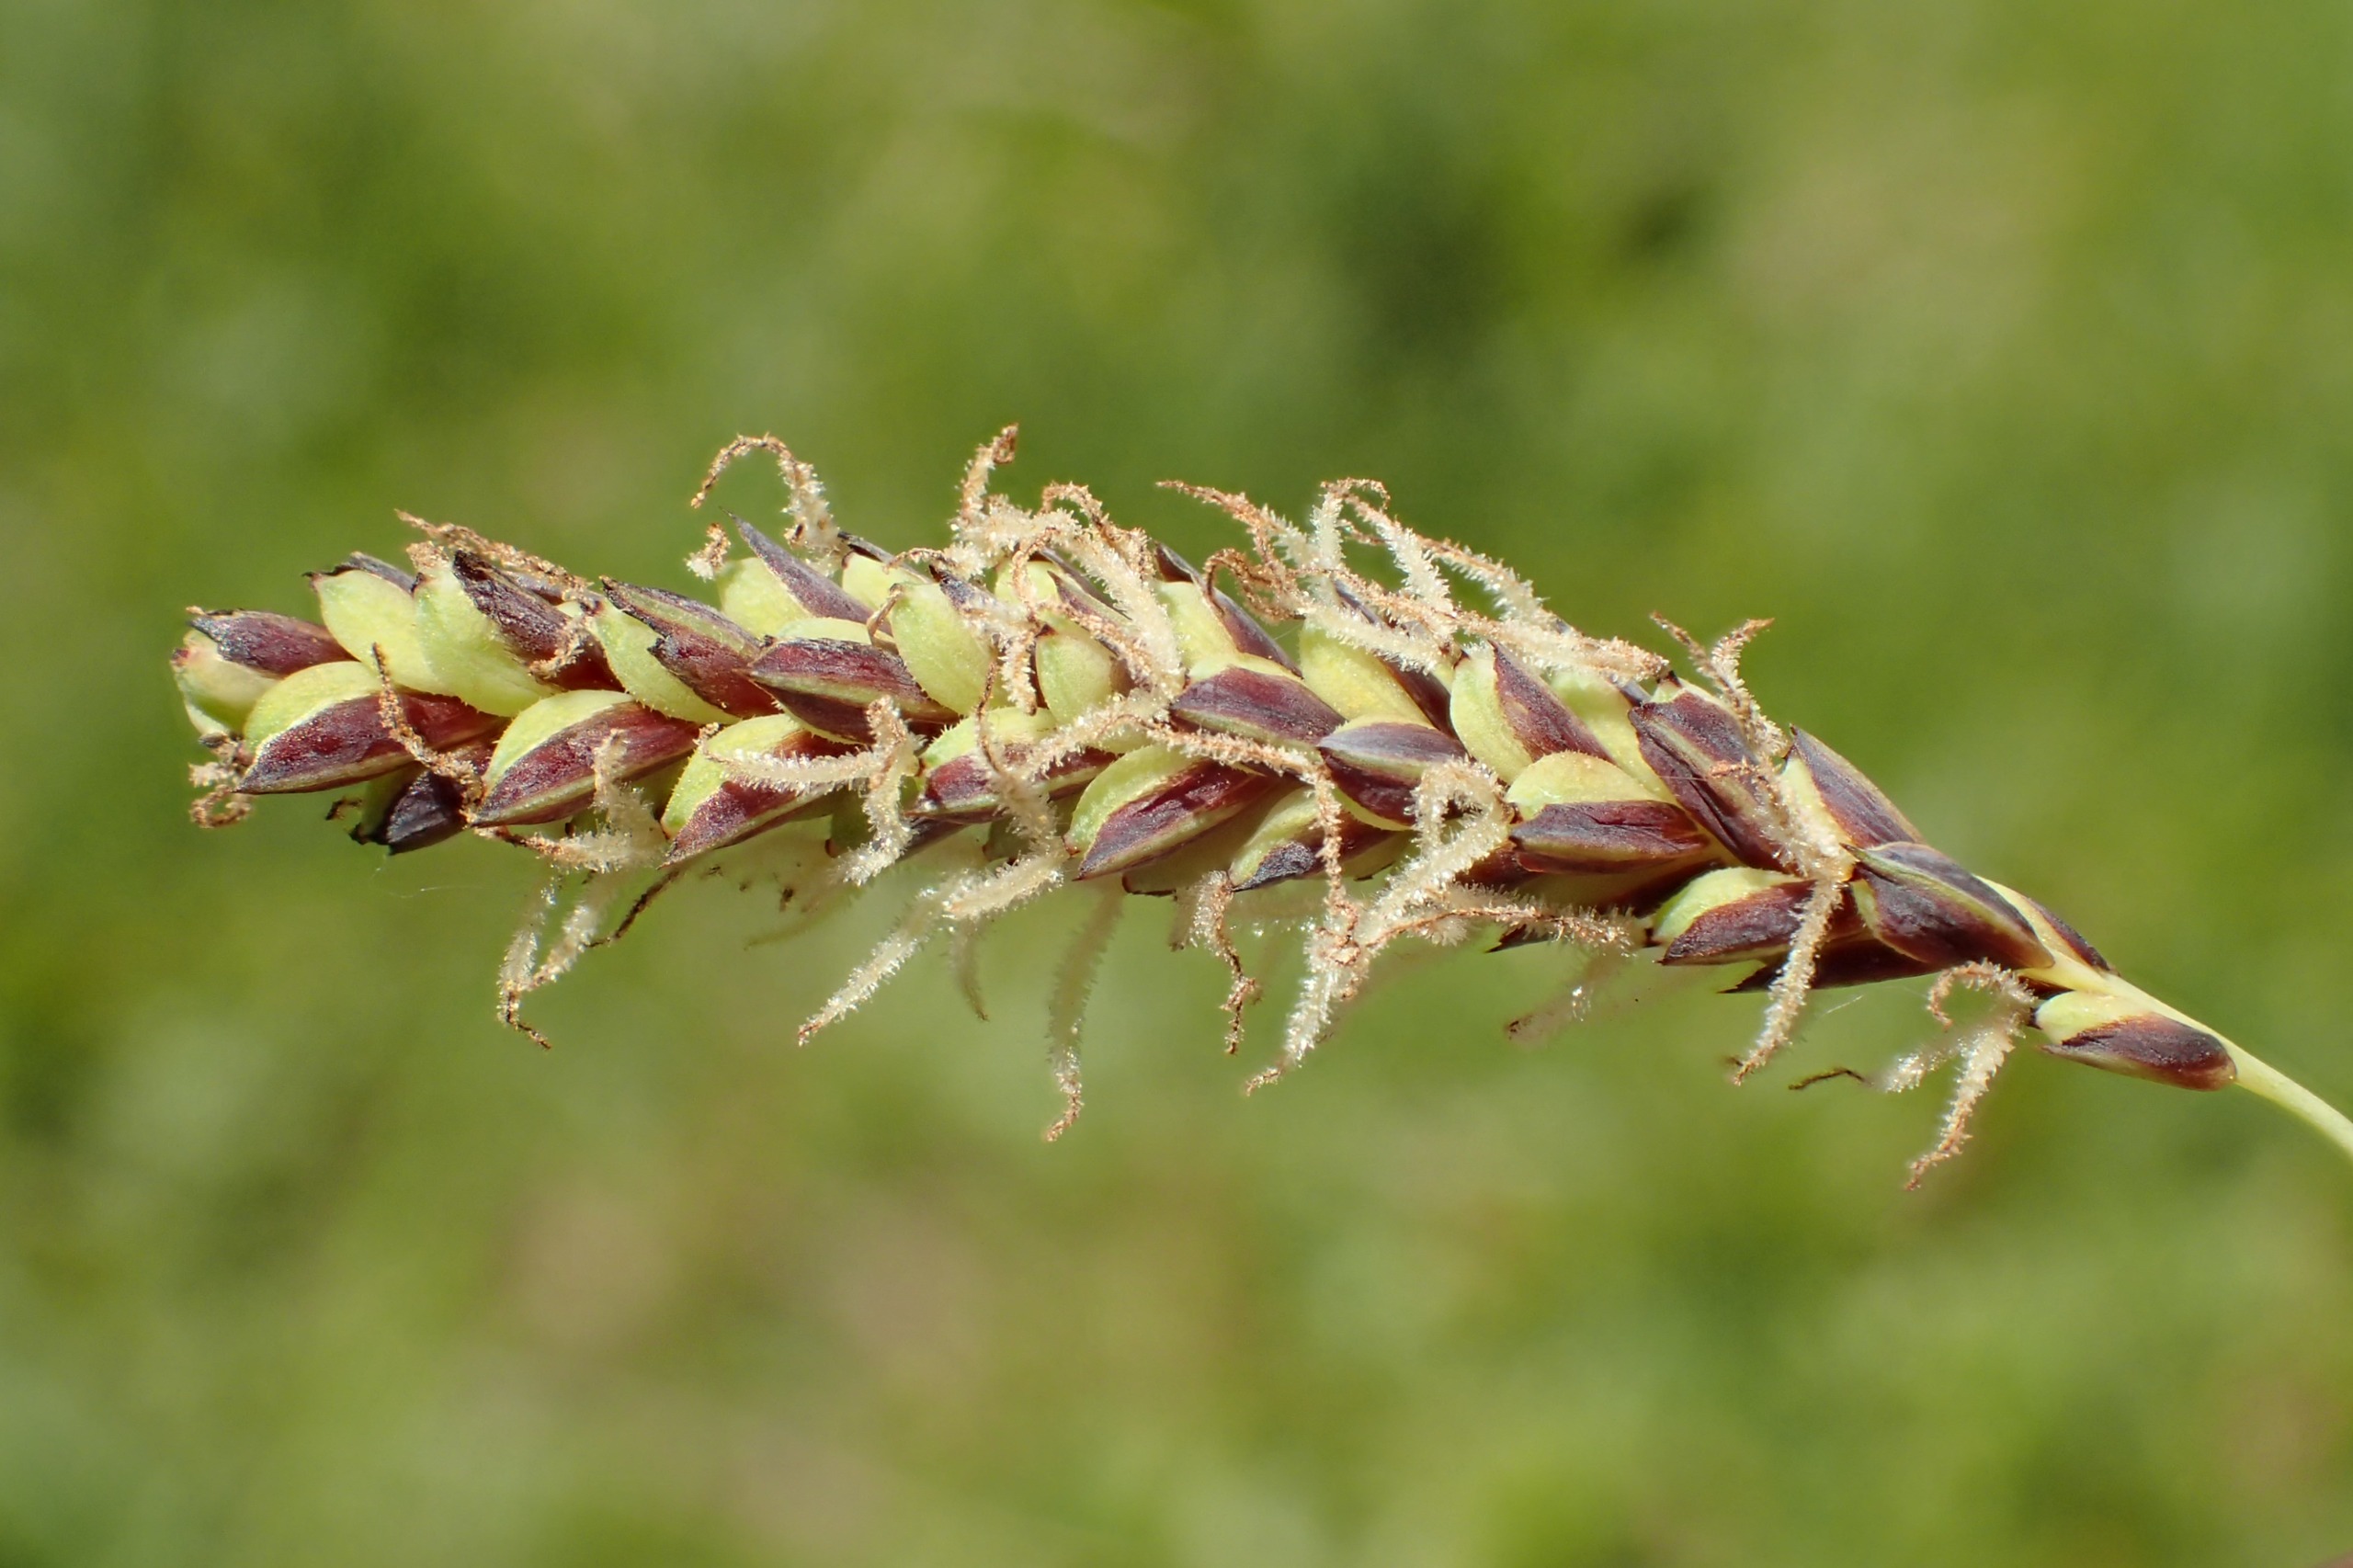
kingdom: Plantae
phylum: Tracheophyta
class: Liliopsida
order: Poales
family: Cyperaceae
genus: Carex
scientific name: Carex flacca
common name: Blågrøn star
